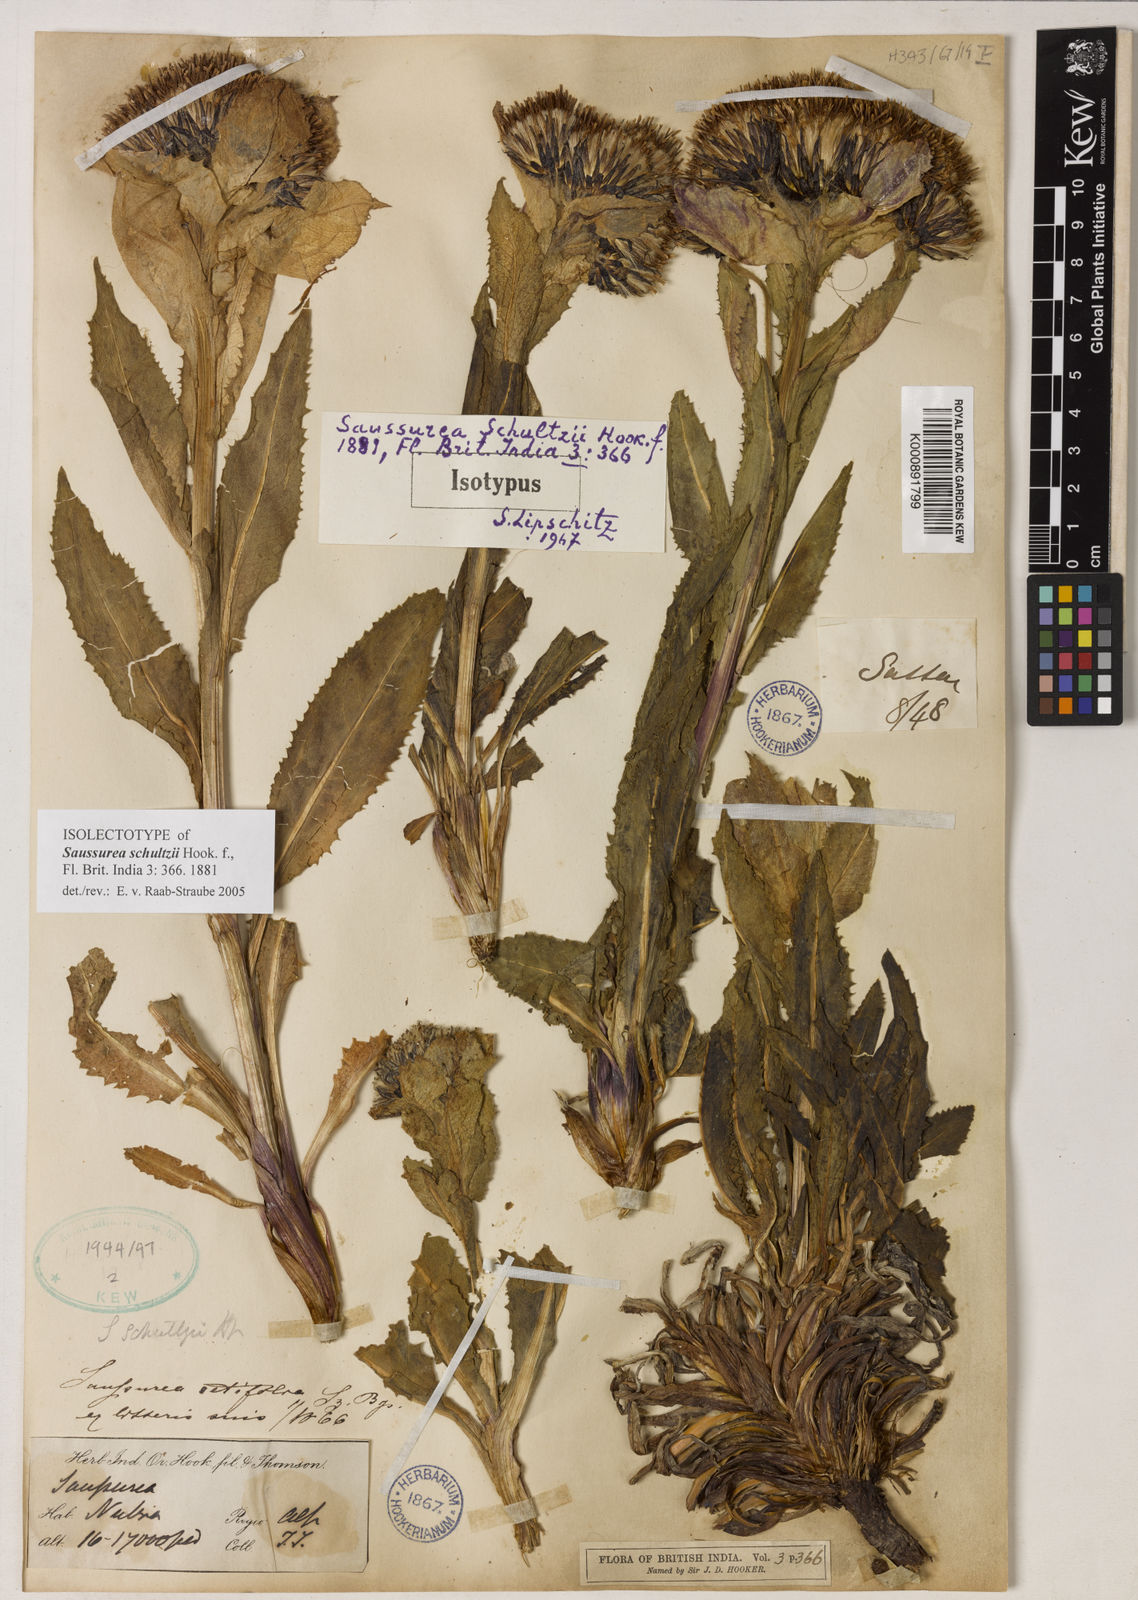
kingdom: Plantae
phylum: Tracheophyta
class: Magnoliopsida
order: Asterales
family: Asteraceae
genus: Saussurea
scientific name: Saussurea bracteata
